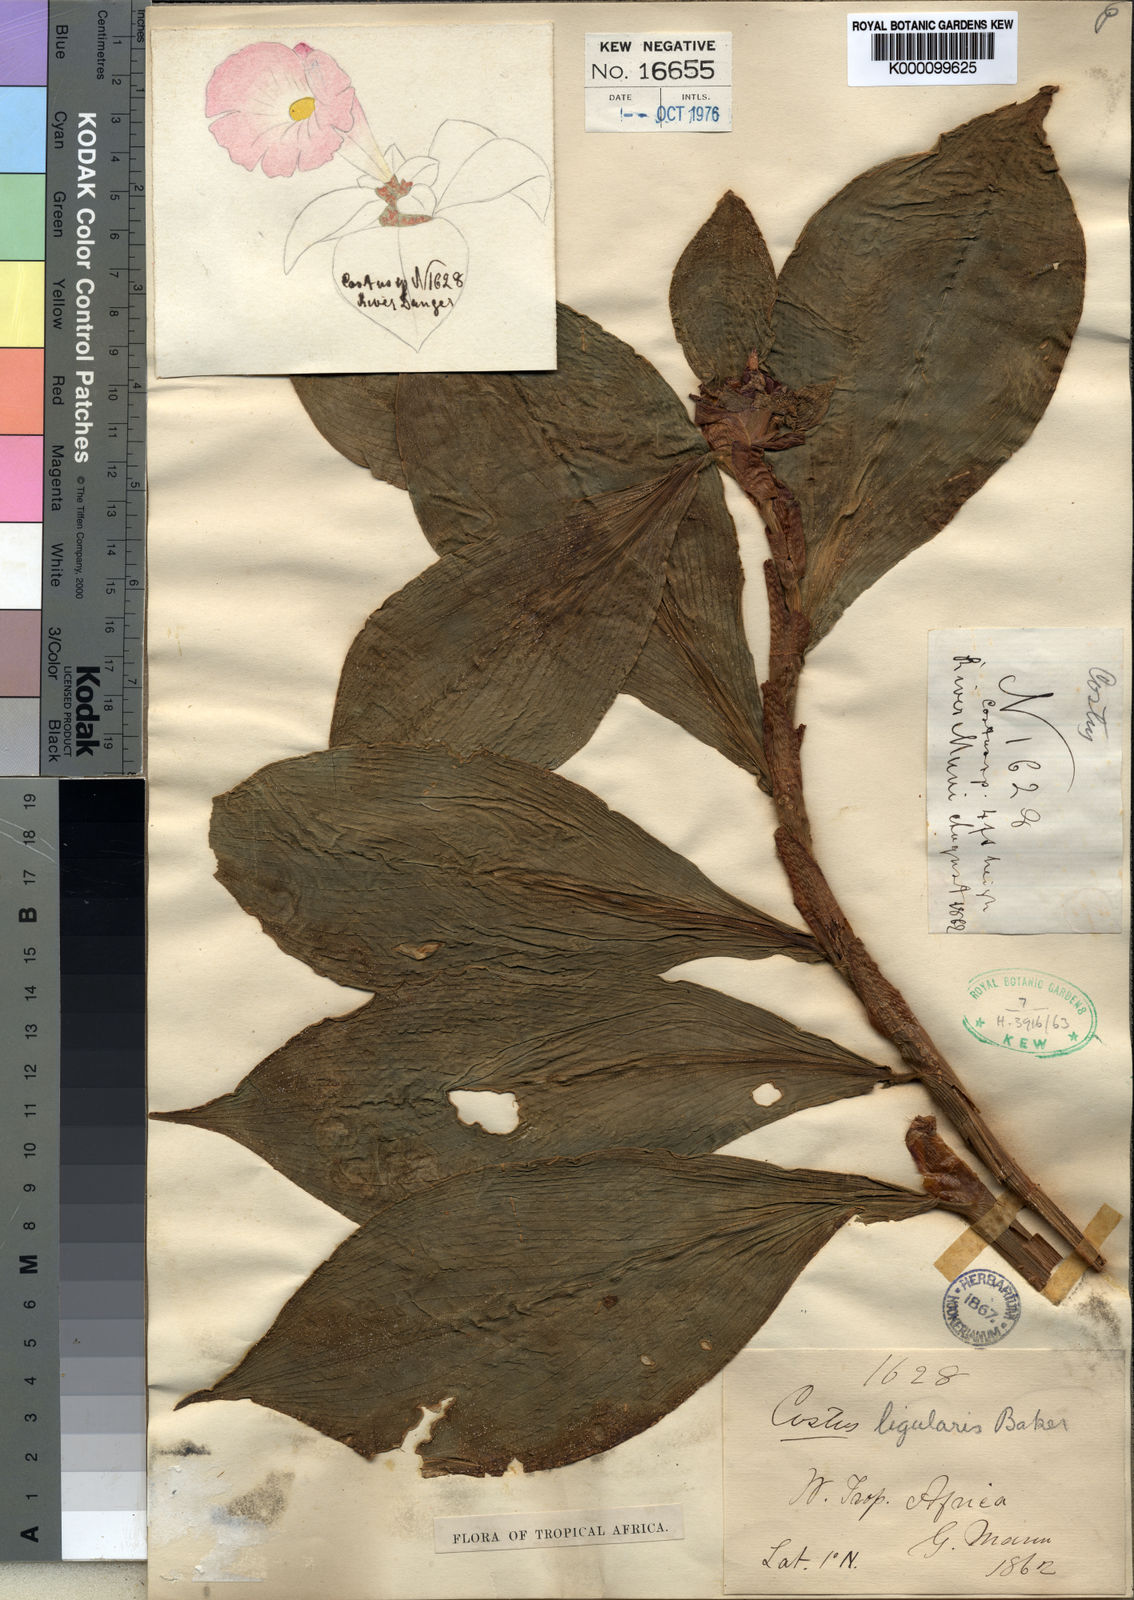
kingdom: Plantae
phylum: Tracheophyta
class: Liliopsida
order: Zingiberales
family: Costaceae
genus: Costus
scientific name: Costus ligularis
